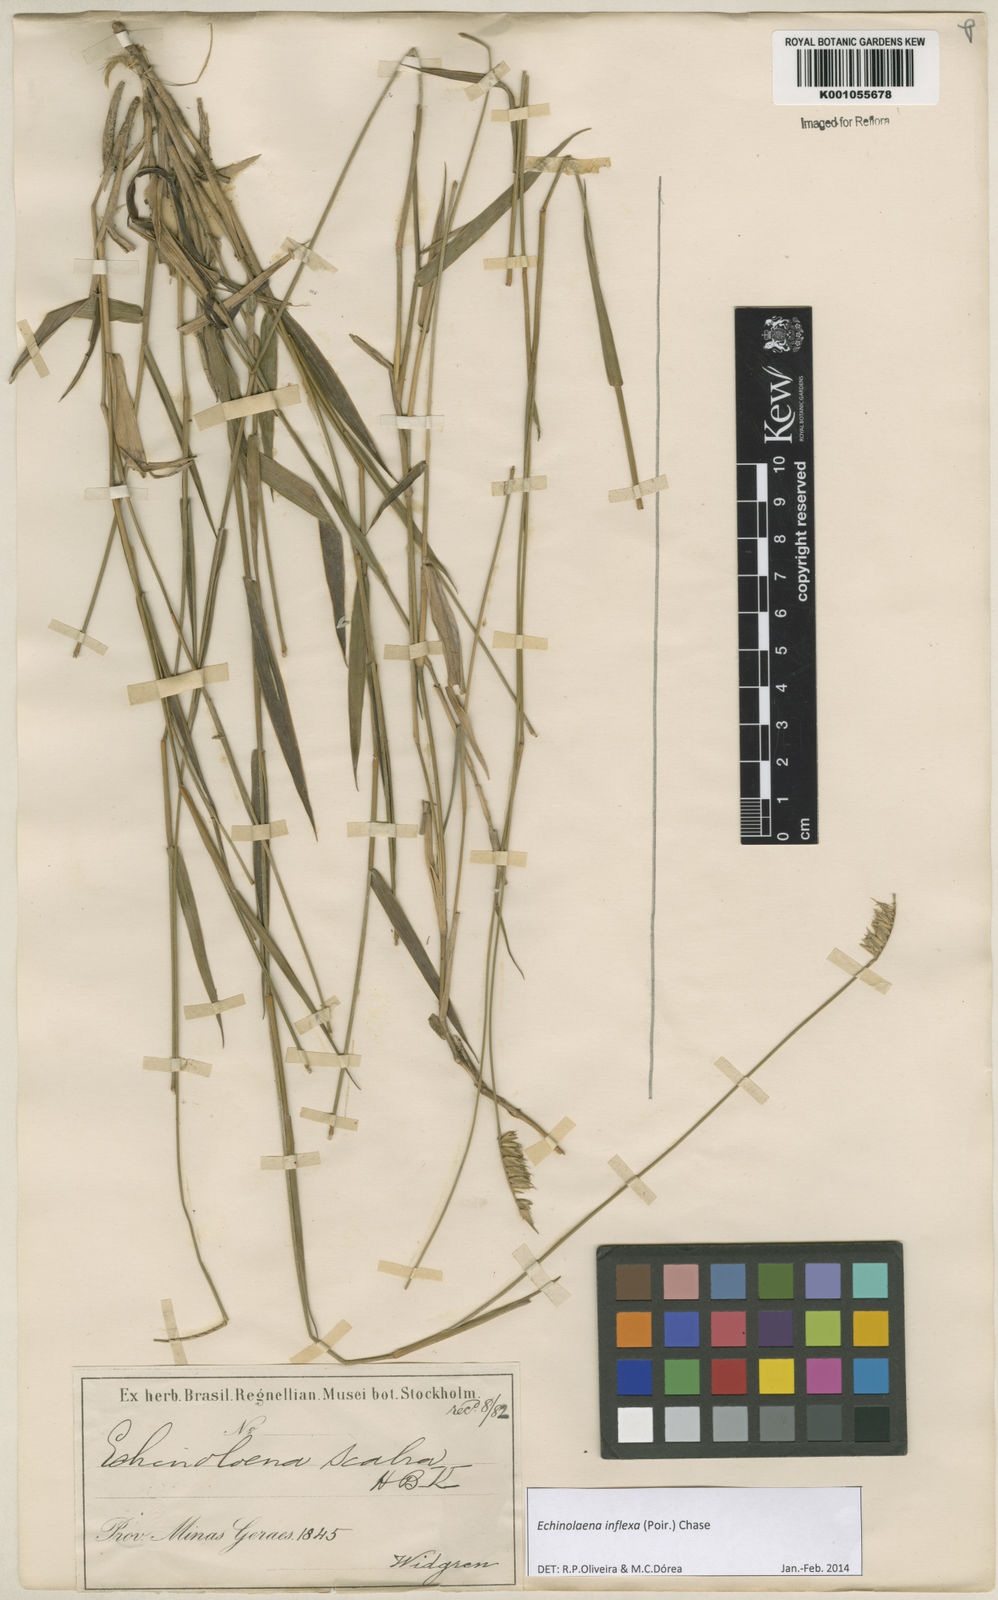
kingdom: Plantae
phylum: Tracheophyta
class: Liliopsida
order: Poales
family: Poaceae
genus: Echinolaena
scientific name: Echinolaena inflexa
